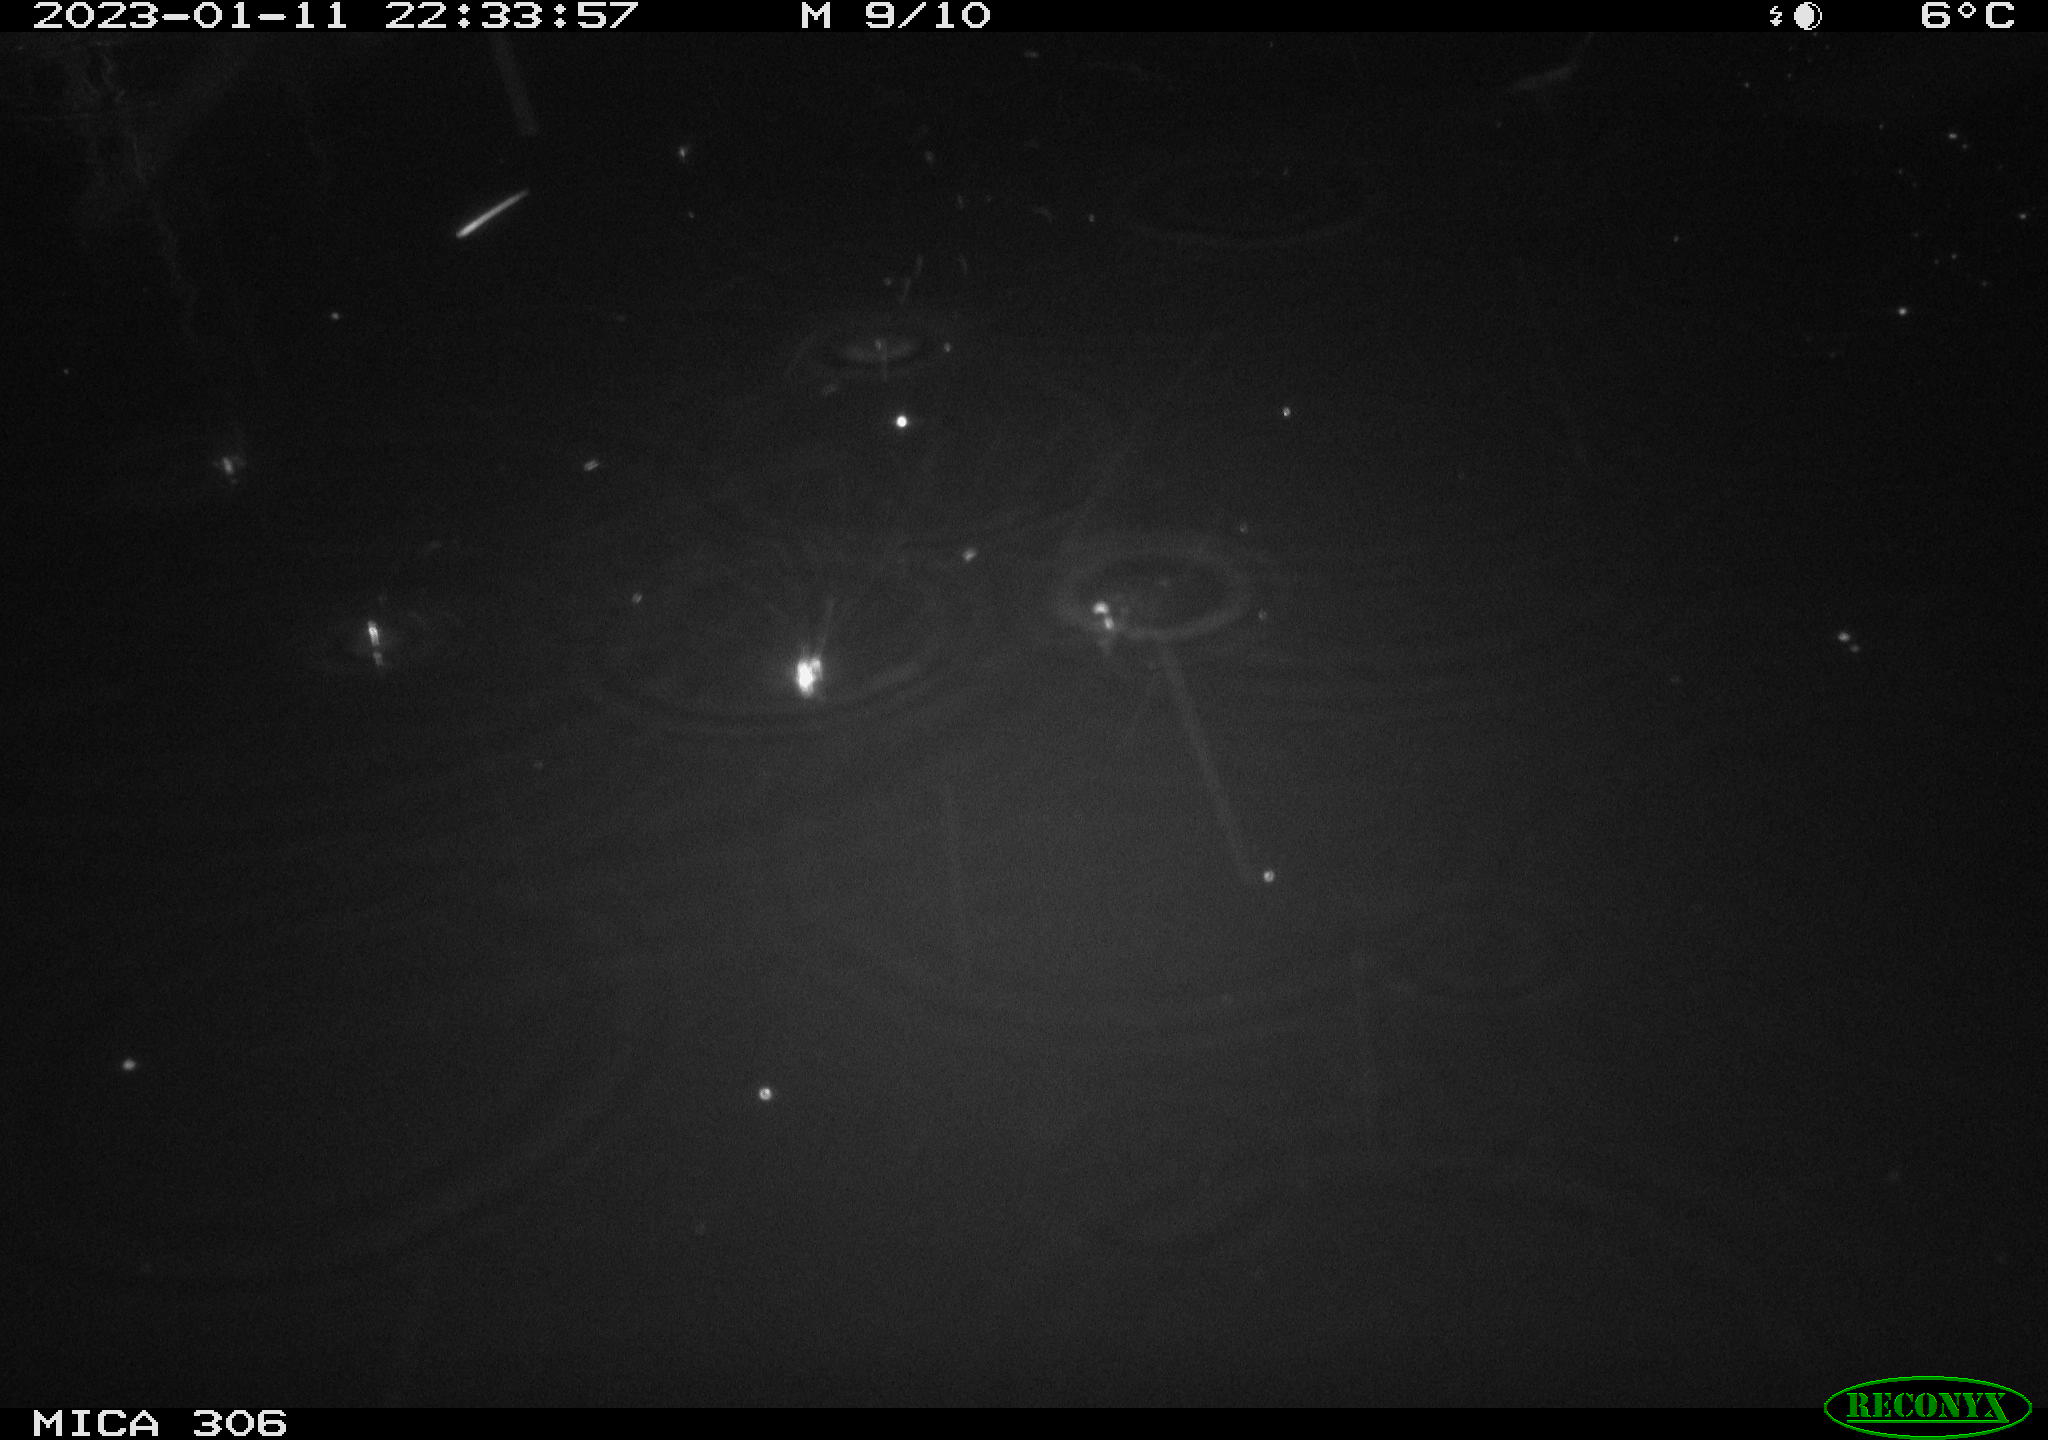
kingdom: Animalia
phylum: Chordata
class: Aves
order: Gruiformes
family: Rallidae
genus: Fulica
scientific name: Fulica atra
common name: Eurasian coot
